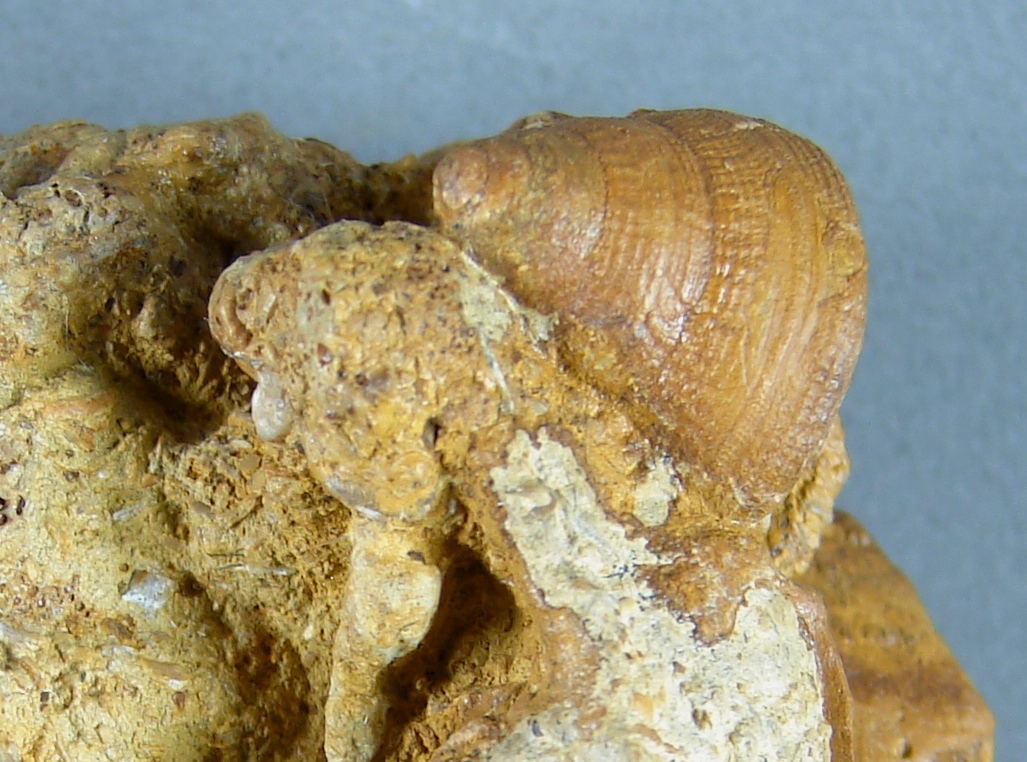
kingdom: Animalia
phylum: Mollusca
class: Gastropoda
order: Pleurotomariida
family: Pleurotomariidae
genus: Bathrotomaria
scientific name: Bathrotomaria Pleurotomaria subreticulata
